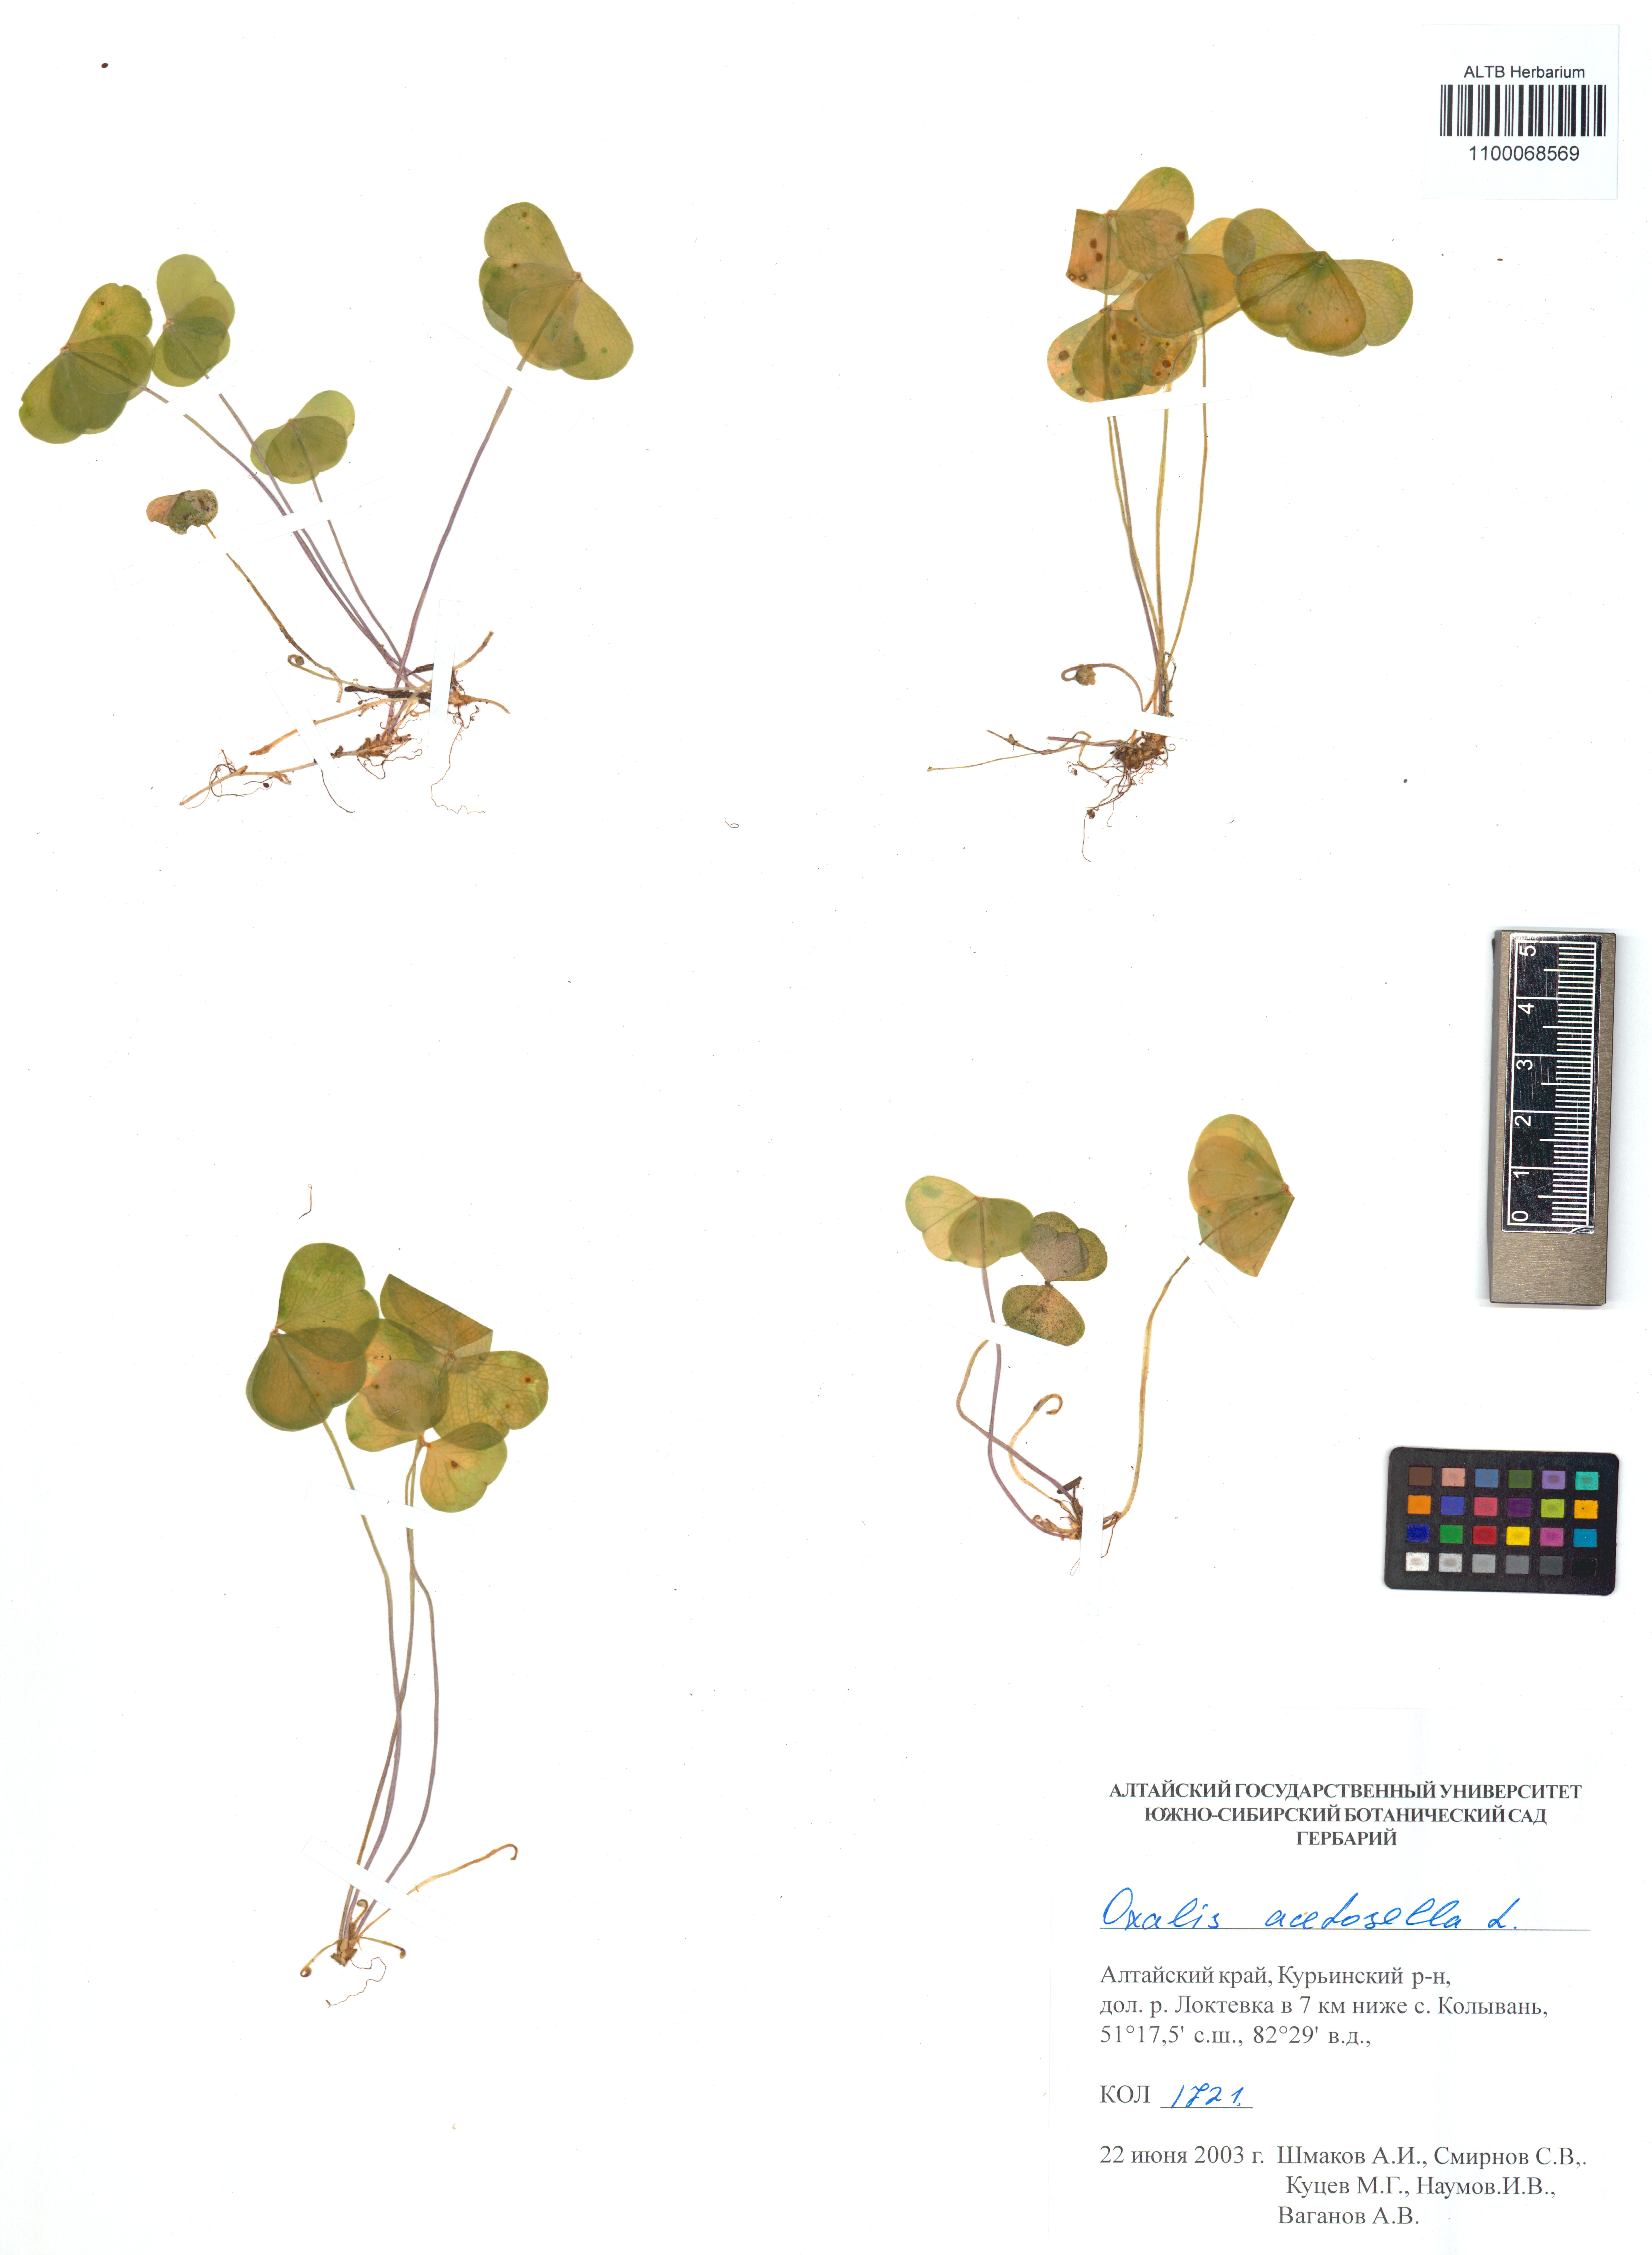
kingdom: Plantae
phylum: Tracheophyta
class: Magnoliopsida
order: Oxalidales
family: Oxalidaceae
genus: Oxalis
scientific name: Oxalis acetosella
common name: Wood-sorrel
